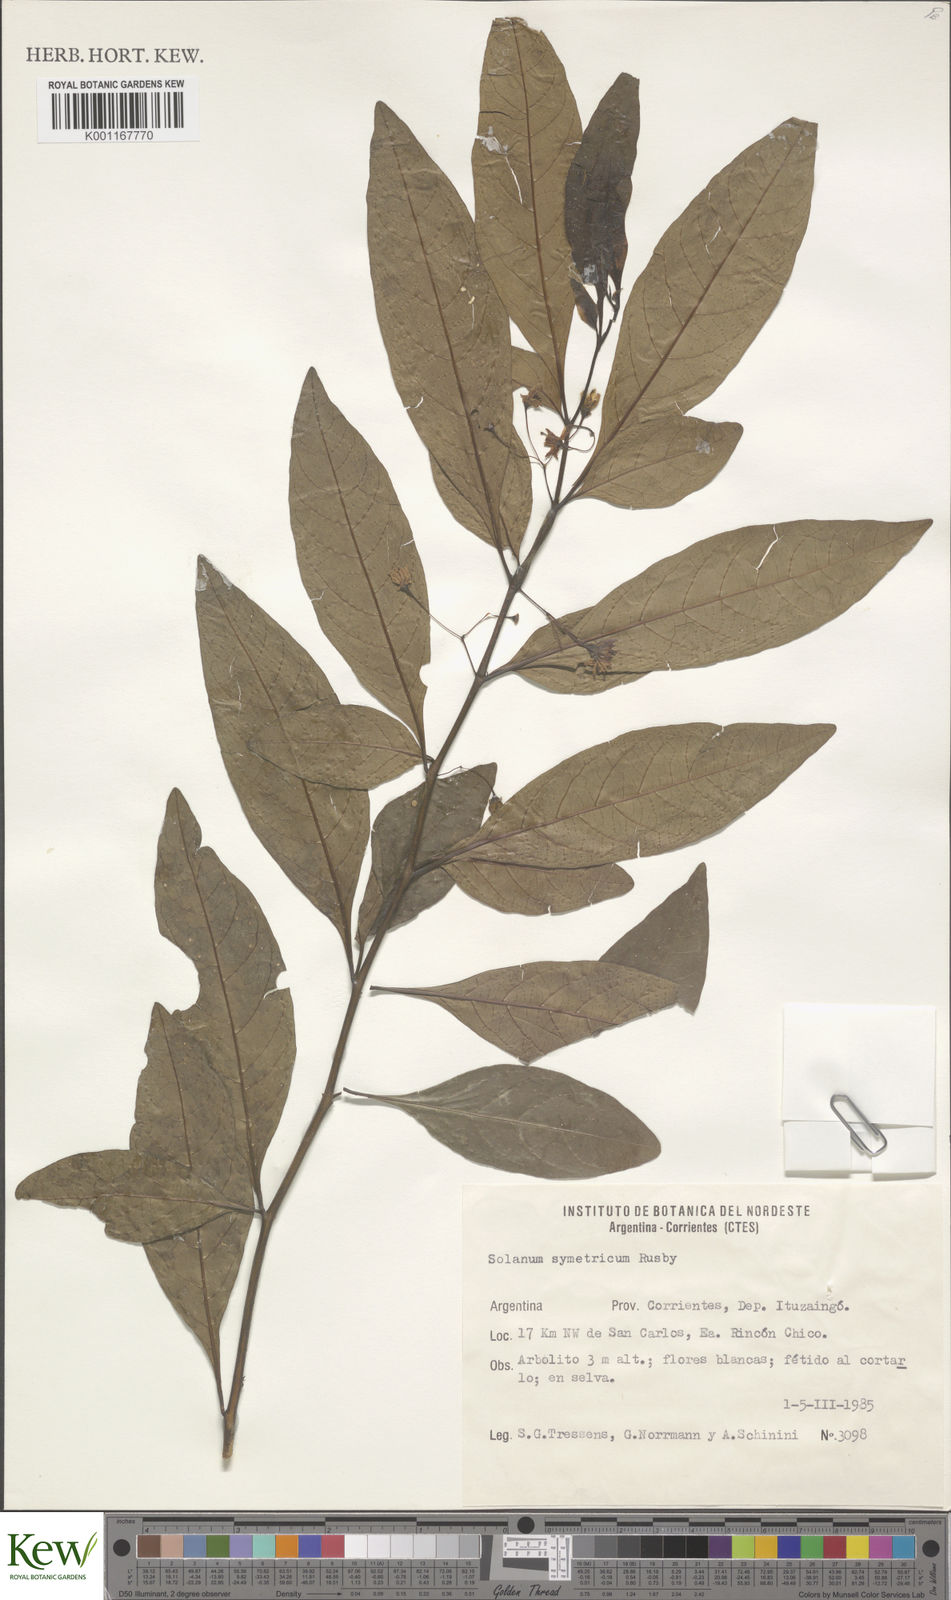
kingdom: Plantae
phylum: Tracheophyta
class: Magnoliopsida
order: Solanales
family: Solanaceae
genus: Solanum
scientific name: Solanum symmetricum
